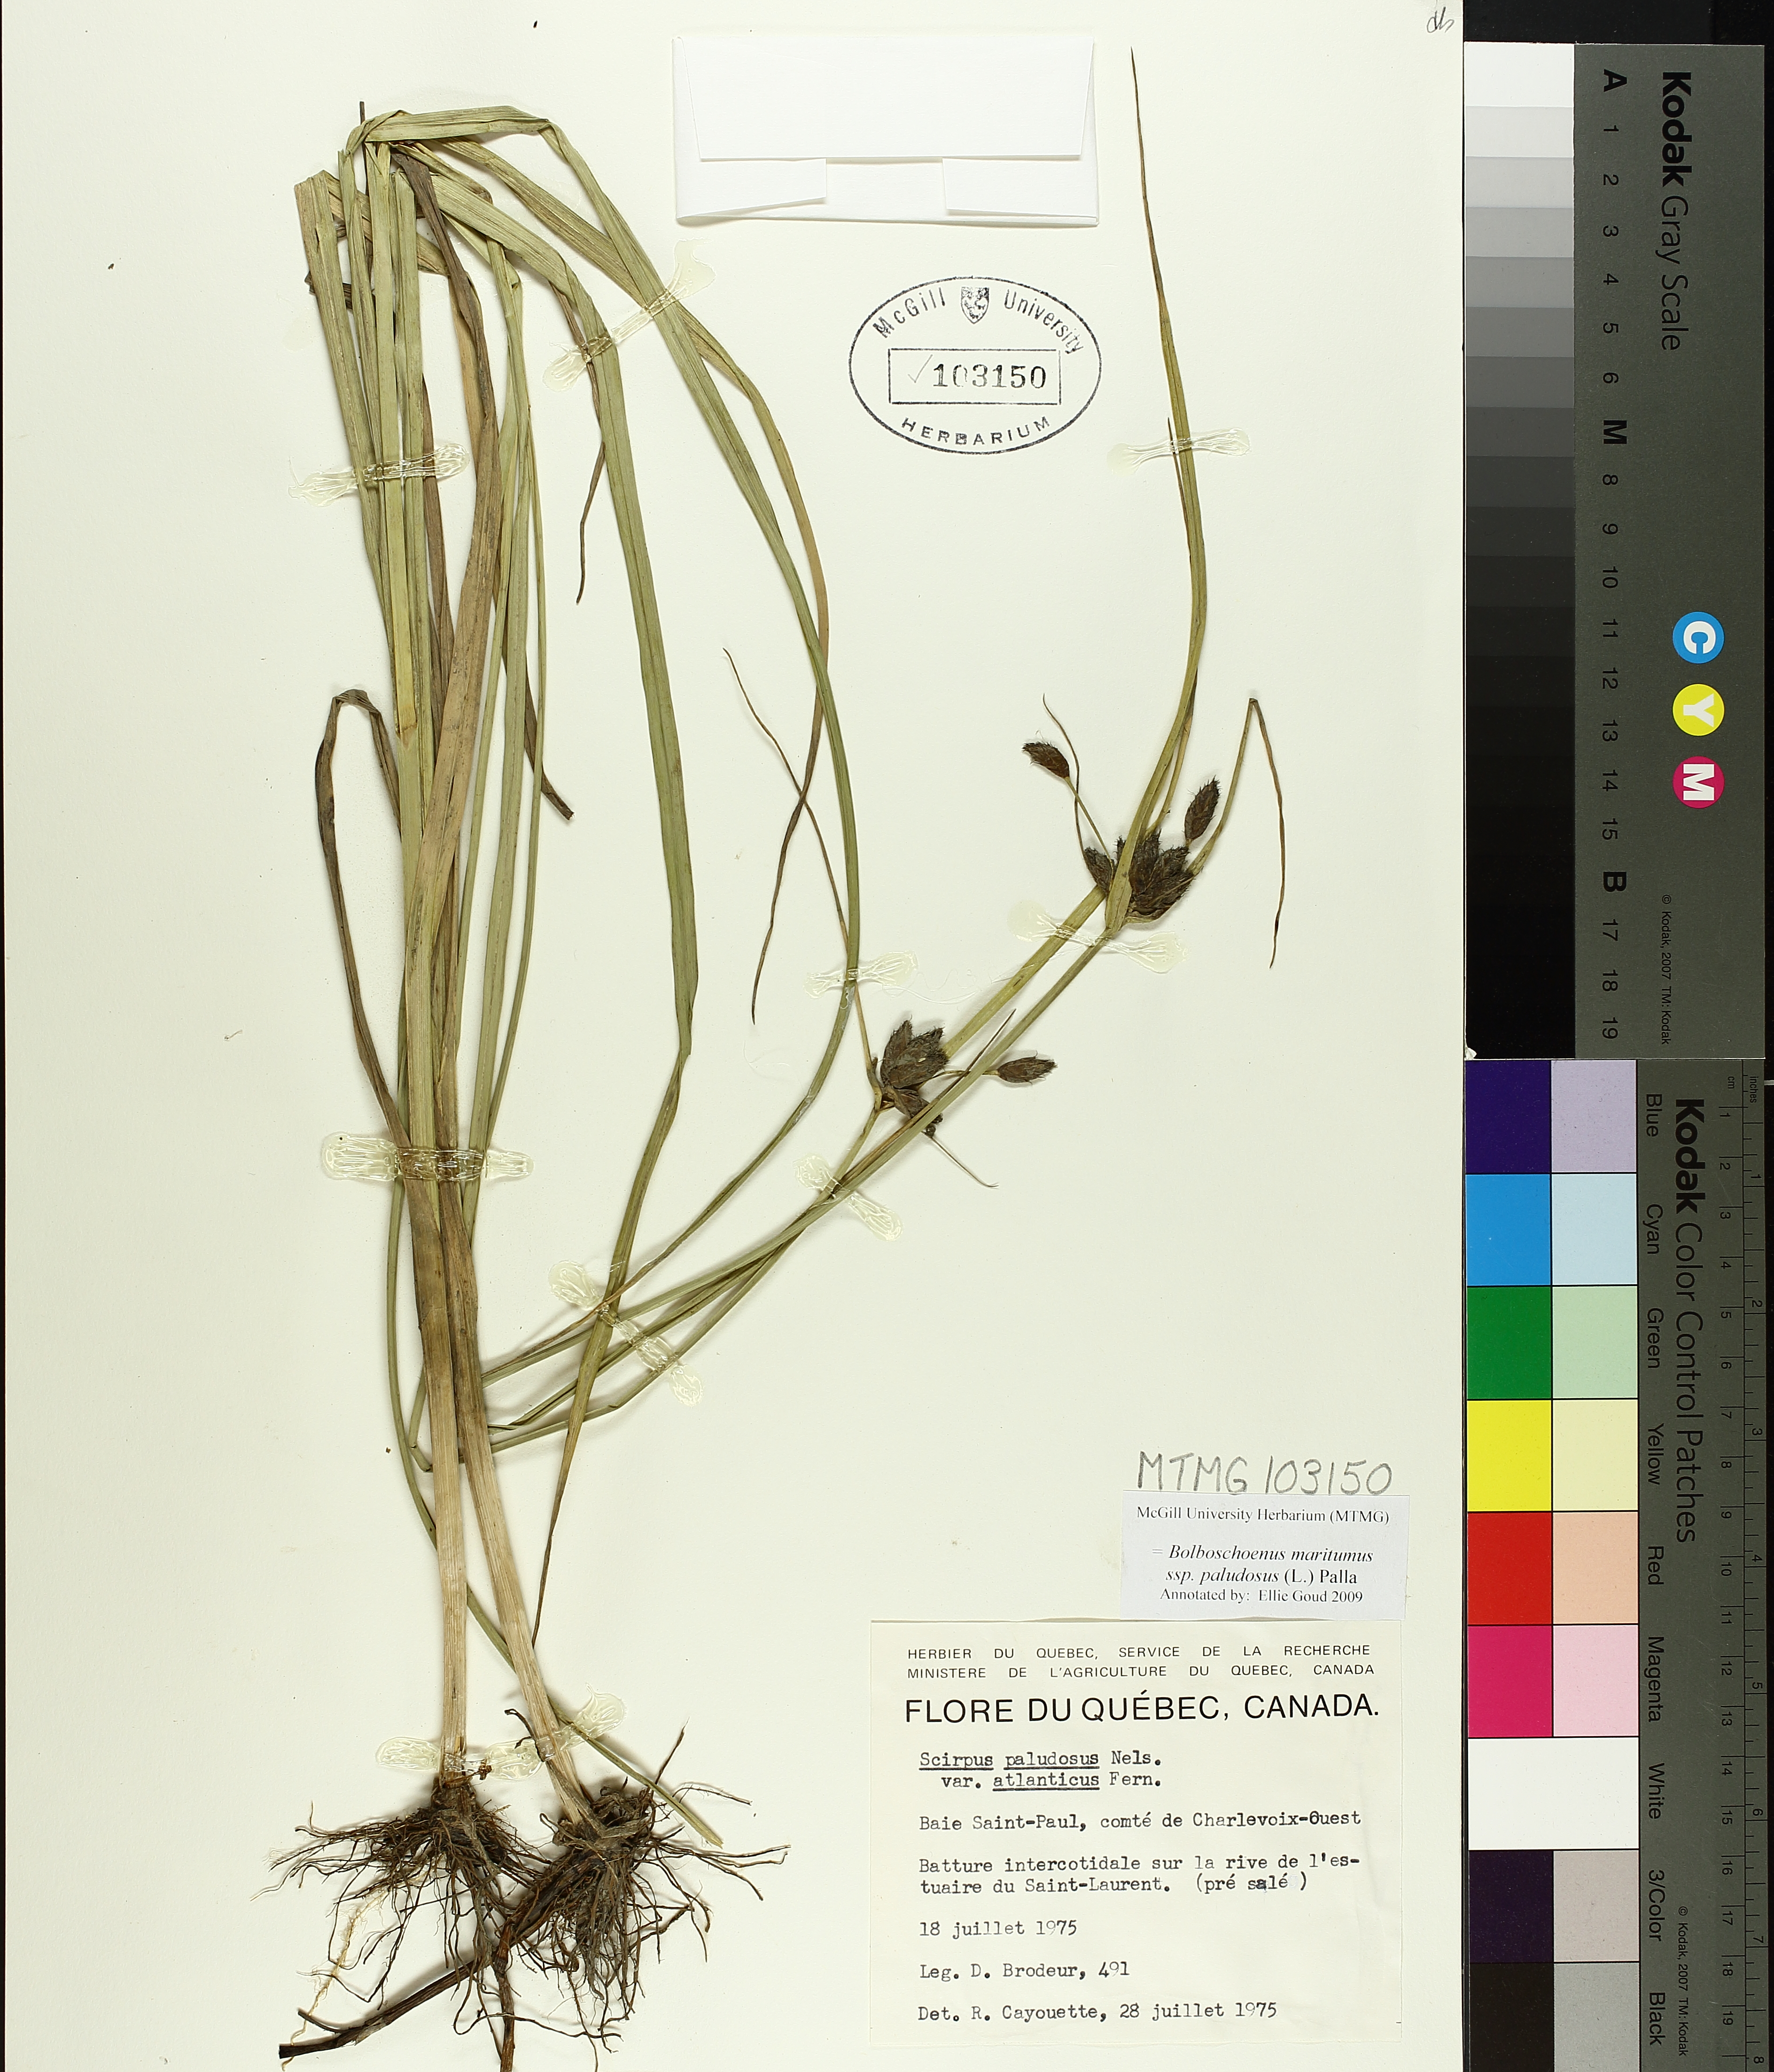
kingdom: Plantae
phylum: Tracheophyta
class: Liliopsida
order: Poales
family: Cyperaceae
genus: Bolboschoenus
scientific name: Bolboschoenus maritimus
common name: Sea club-rush
